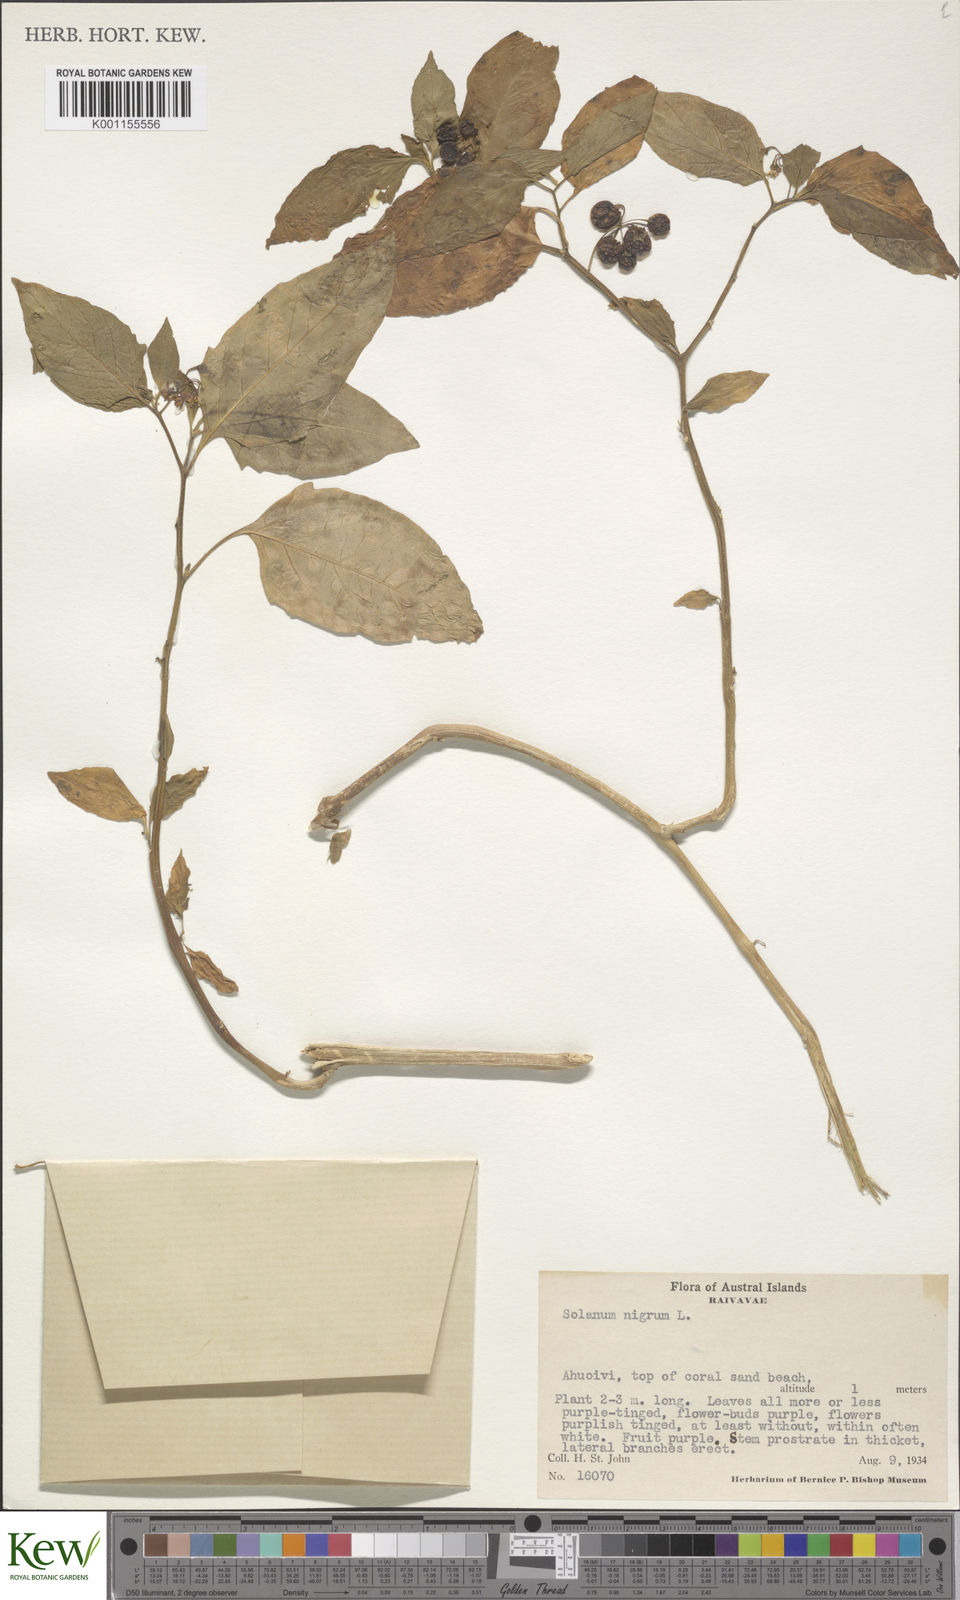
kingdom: Plantae
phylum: Tracheophyta
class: Magnoliopsida
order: Solanales
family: Solanaceae
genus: Solanum
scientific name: Solanum americanum
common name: American black nightshade
